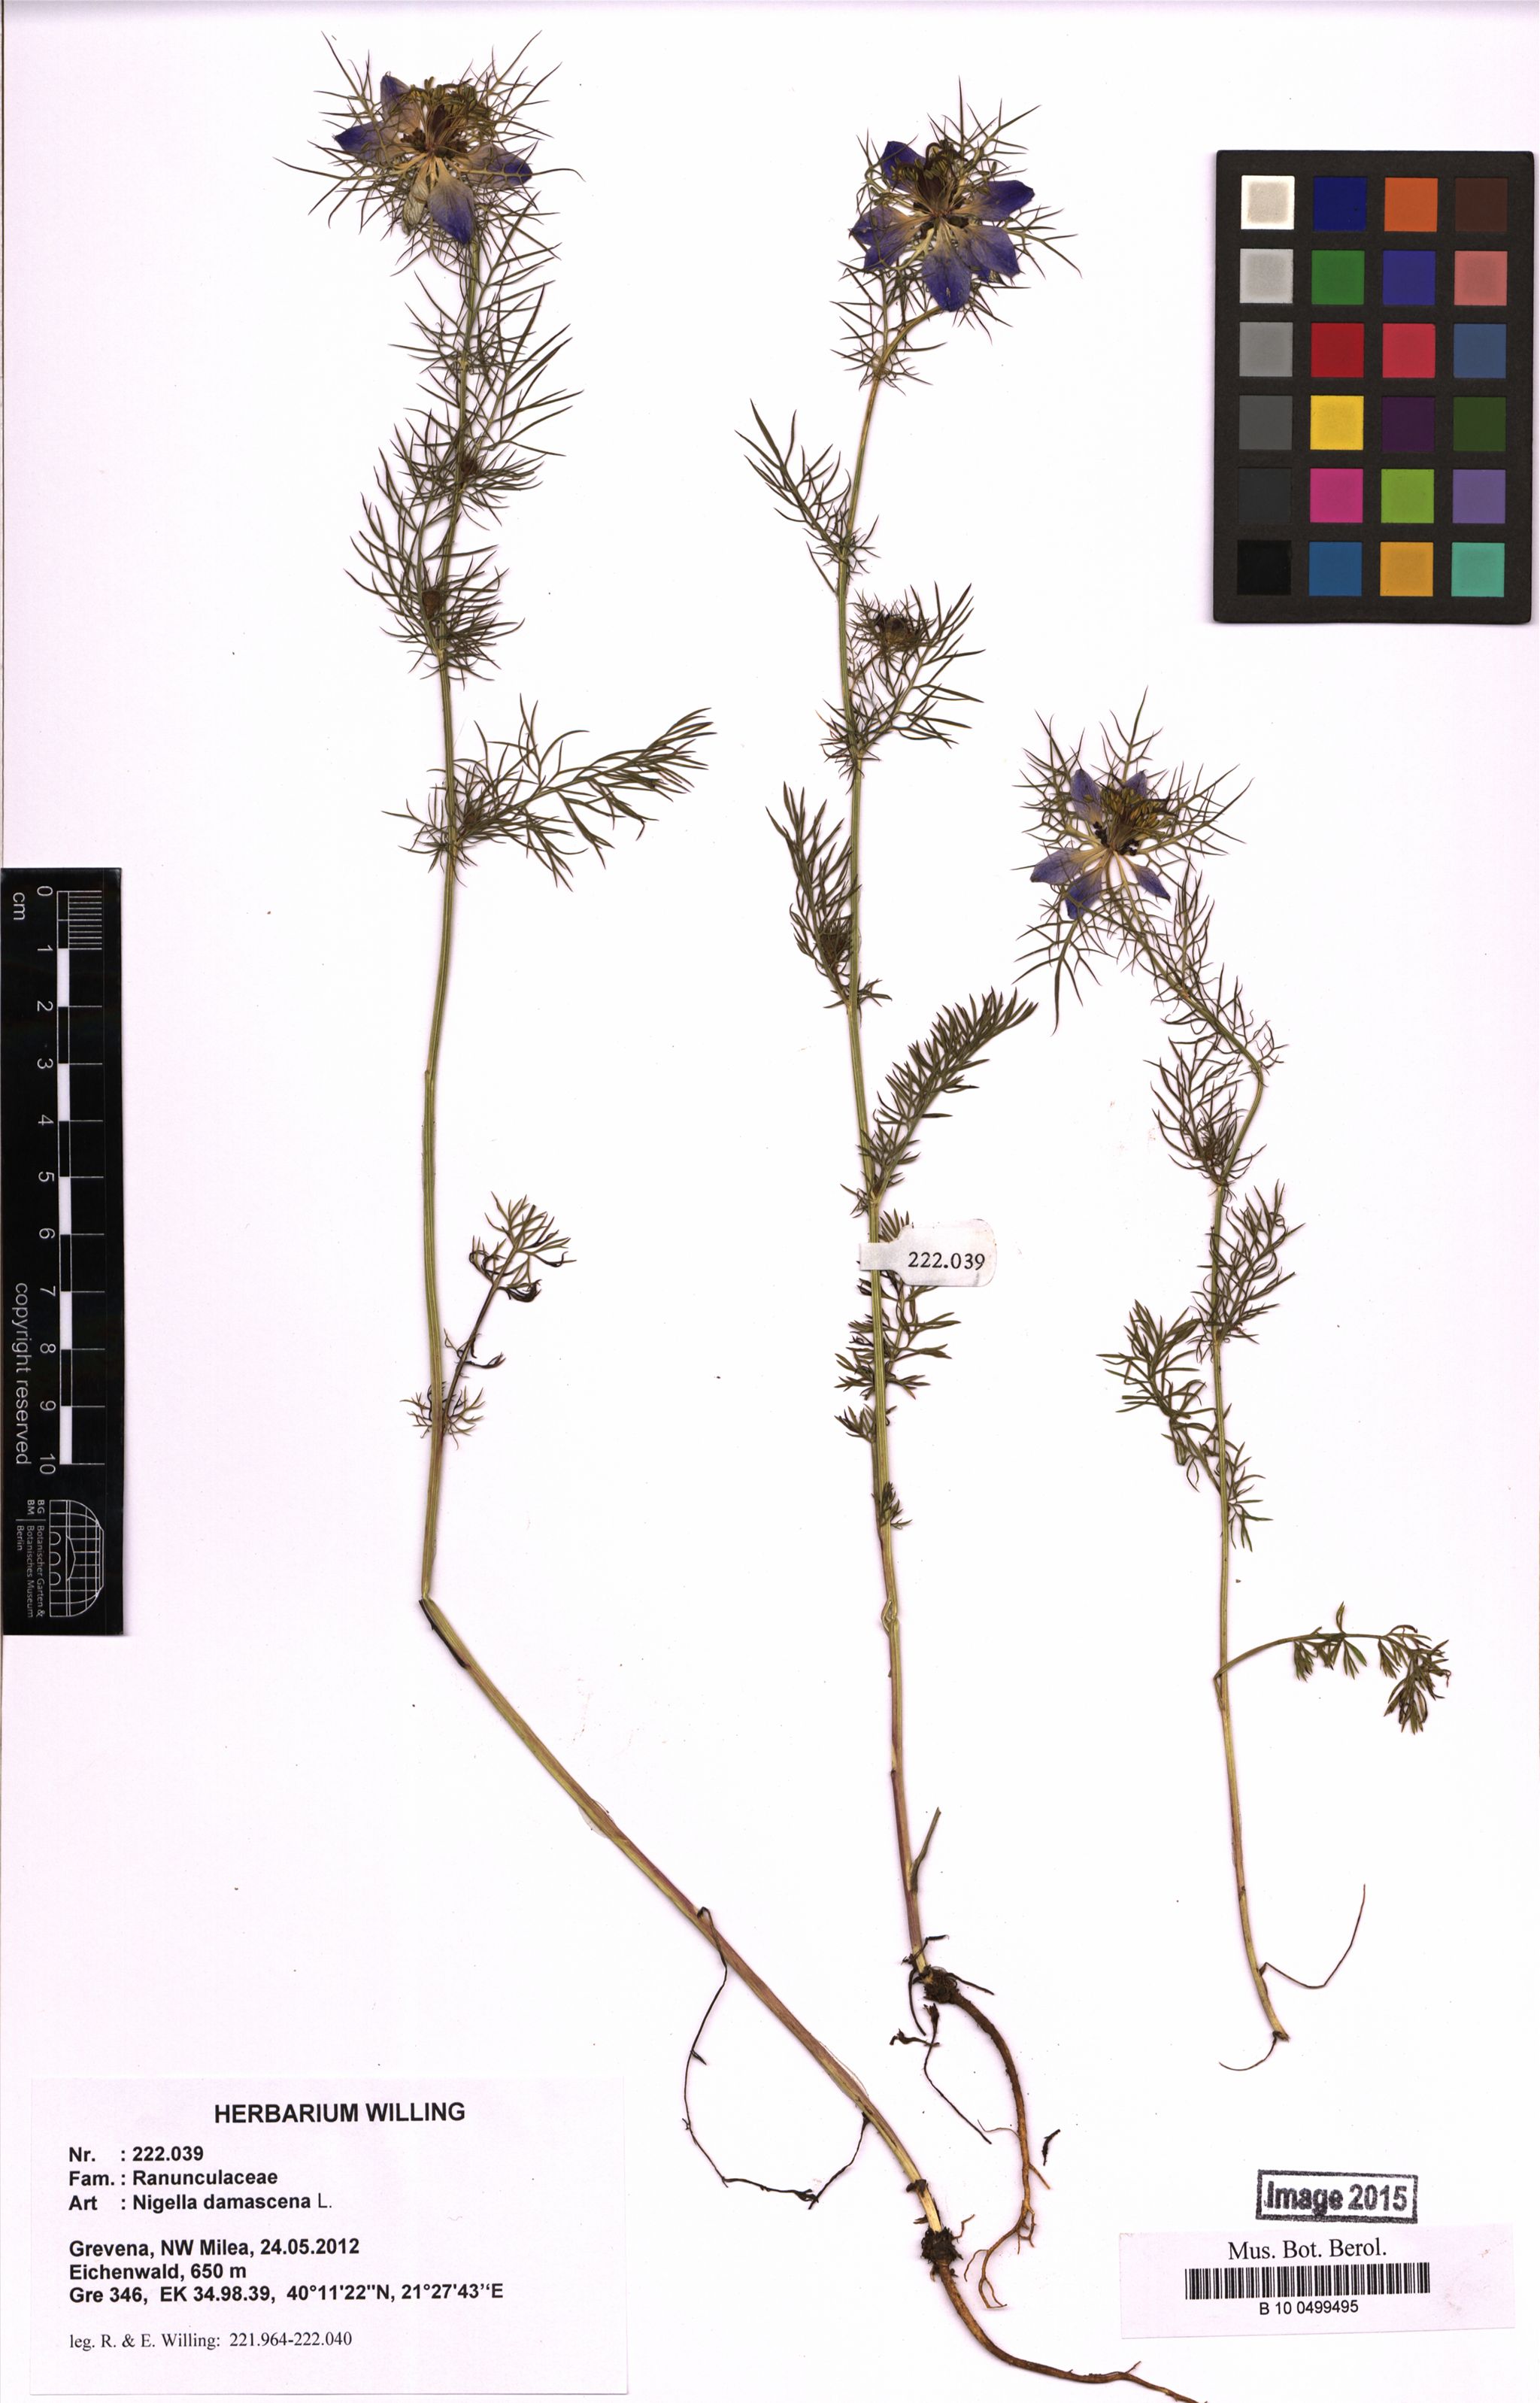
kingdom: Plantae
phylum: Tracheophyta
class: Magnoliopsida
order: Ranunculales
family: Ranunculaceae
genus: Nigella
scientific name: Nigella damascena
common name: Love-in-a-mist
